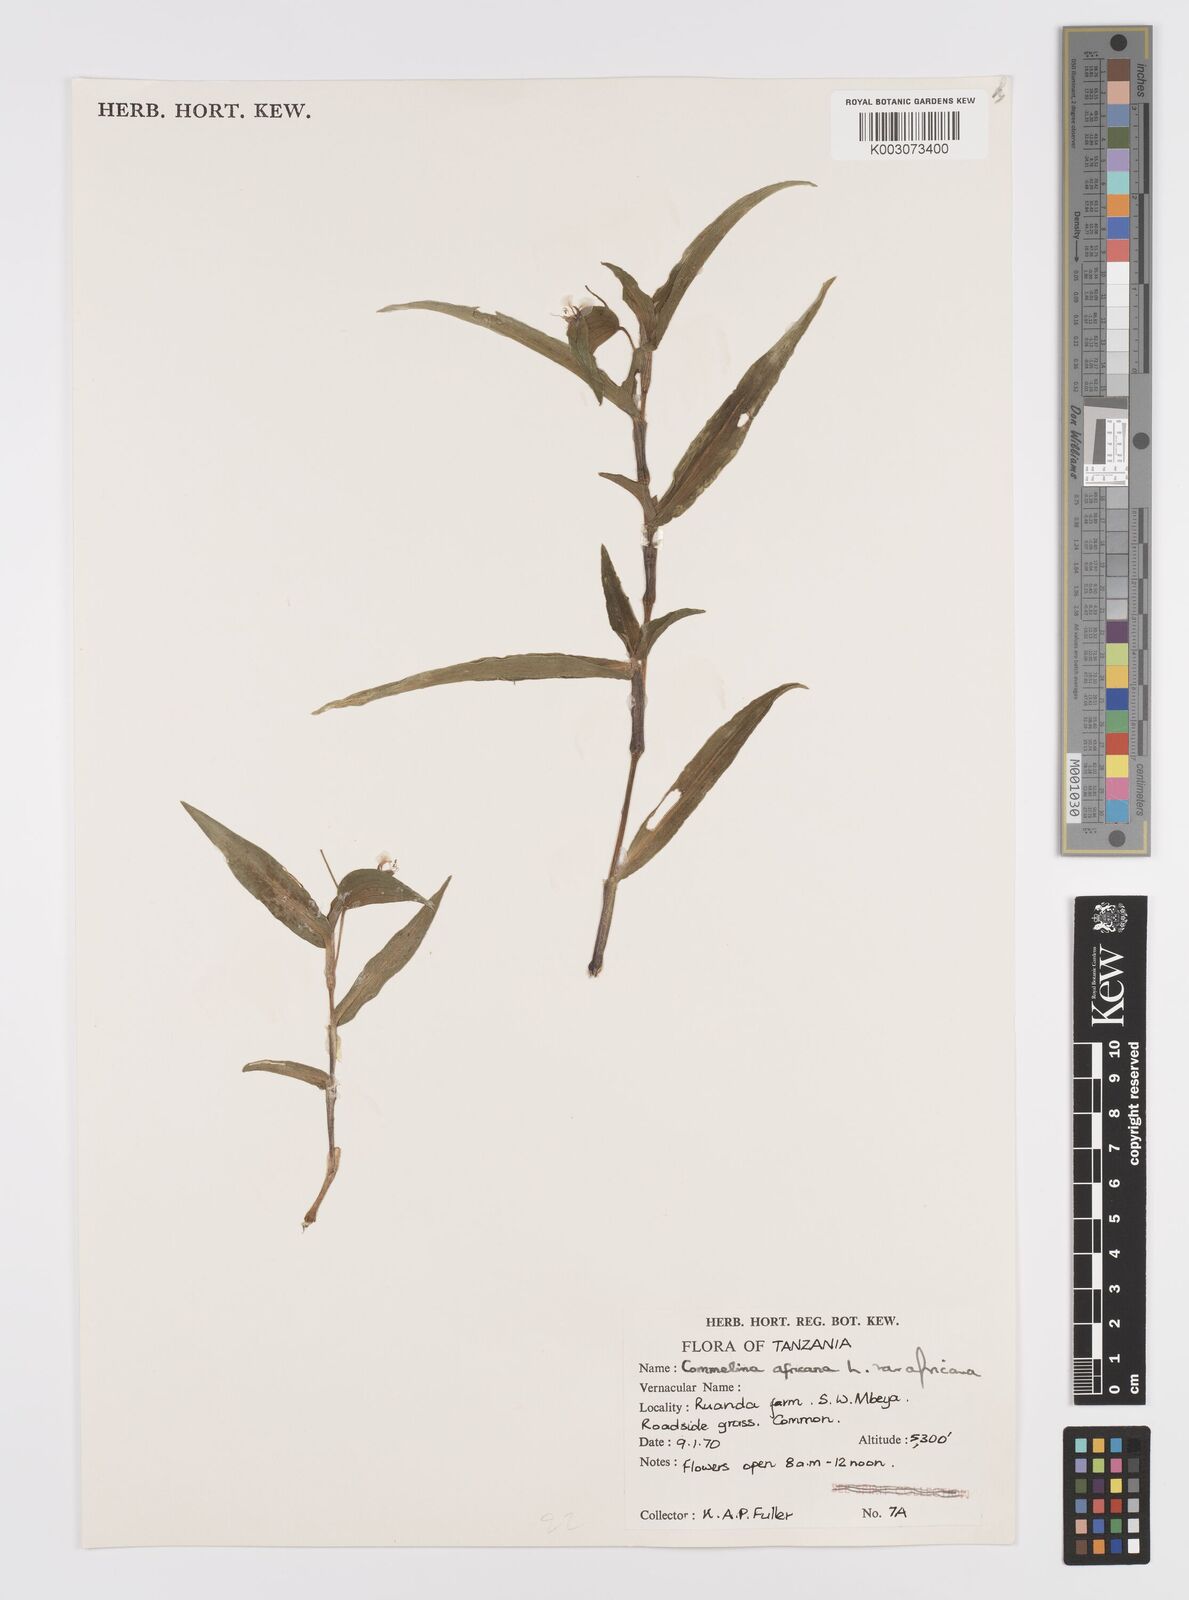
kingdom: Plantae
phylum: Tracheophyta
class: Liliopsida
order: Commelinales
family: Commelinaceae
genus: Commelina
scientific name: Commelina africana
